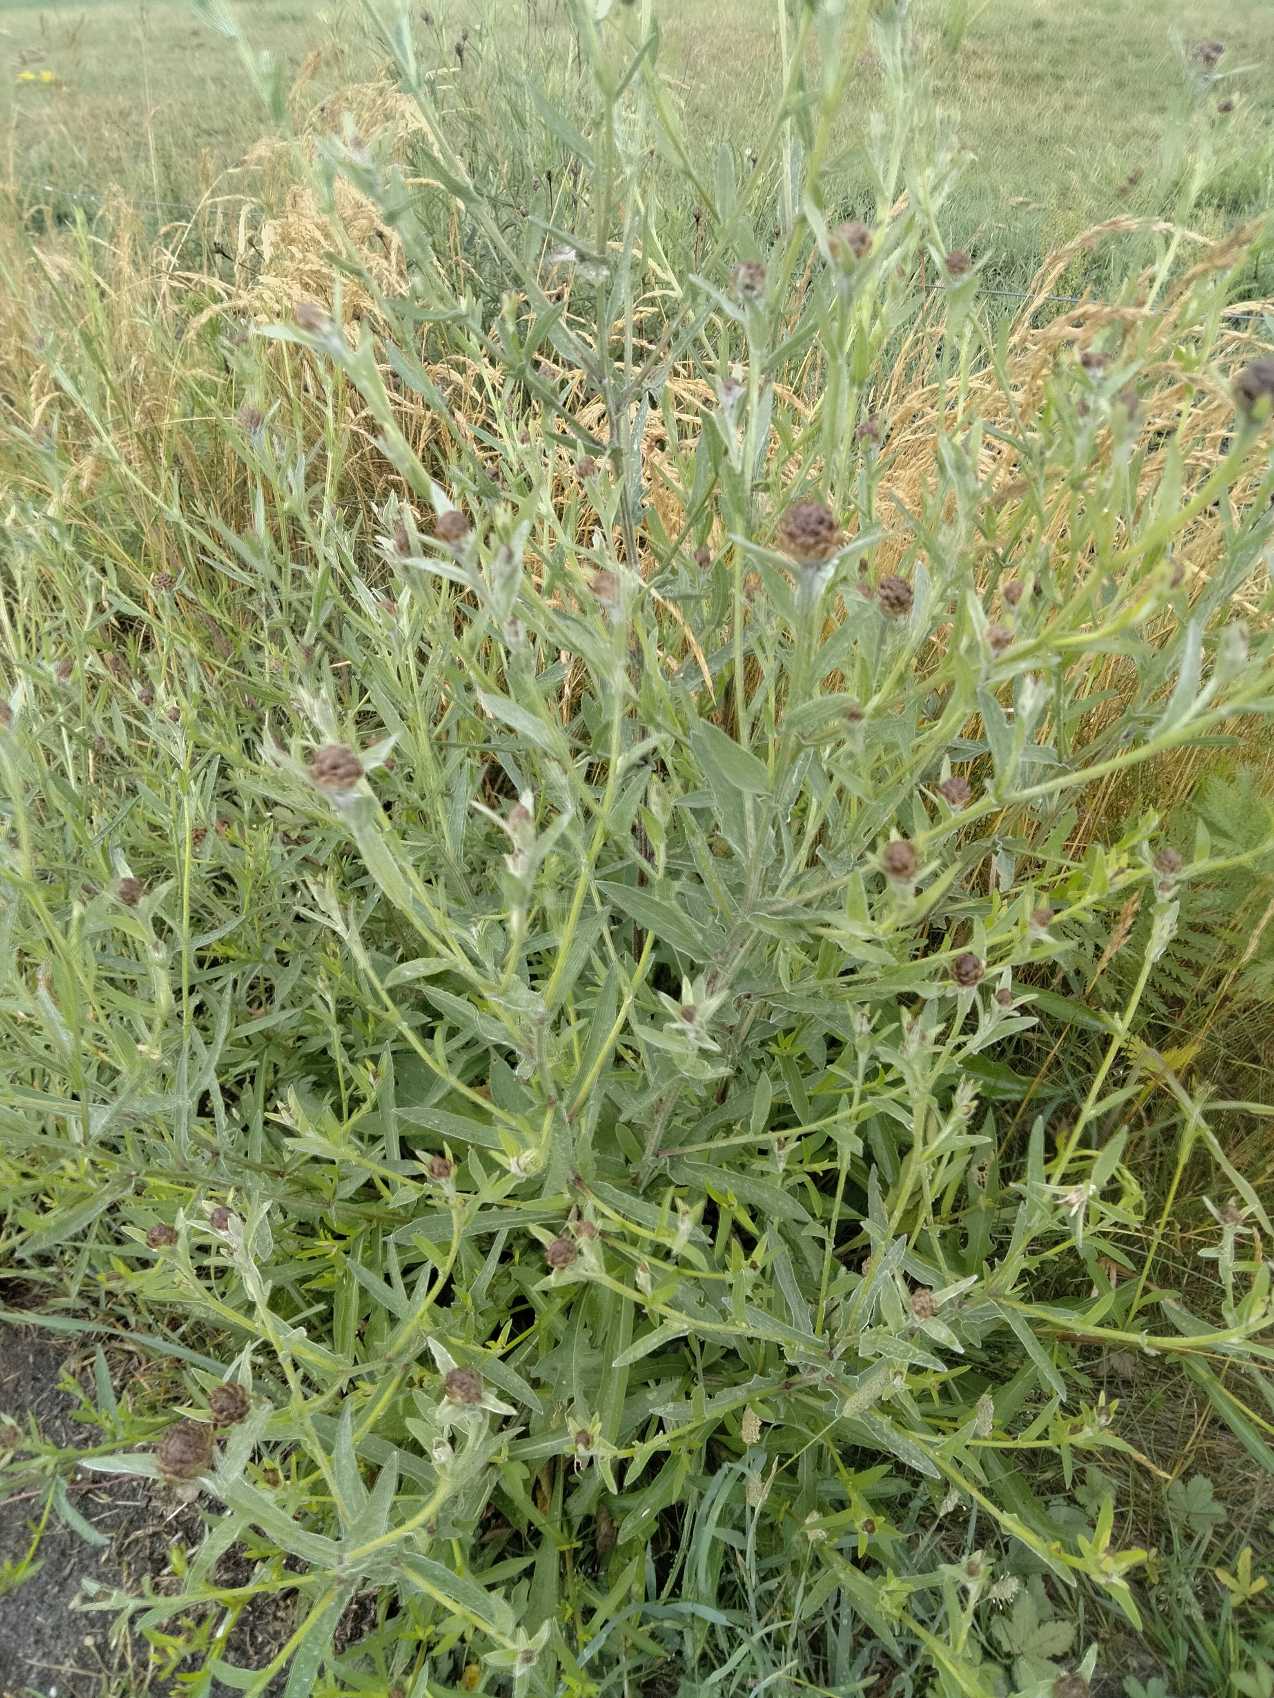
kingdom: Plantae
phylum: Tracheophyta
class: Magnoliopsida
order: Asterales
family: Asteraceae
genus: Centaurea
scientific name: Centaurea jacea
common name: Almindelig knopurt
